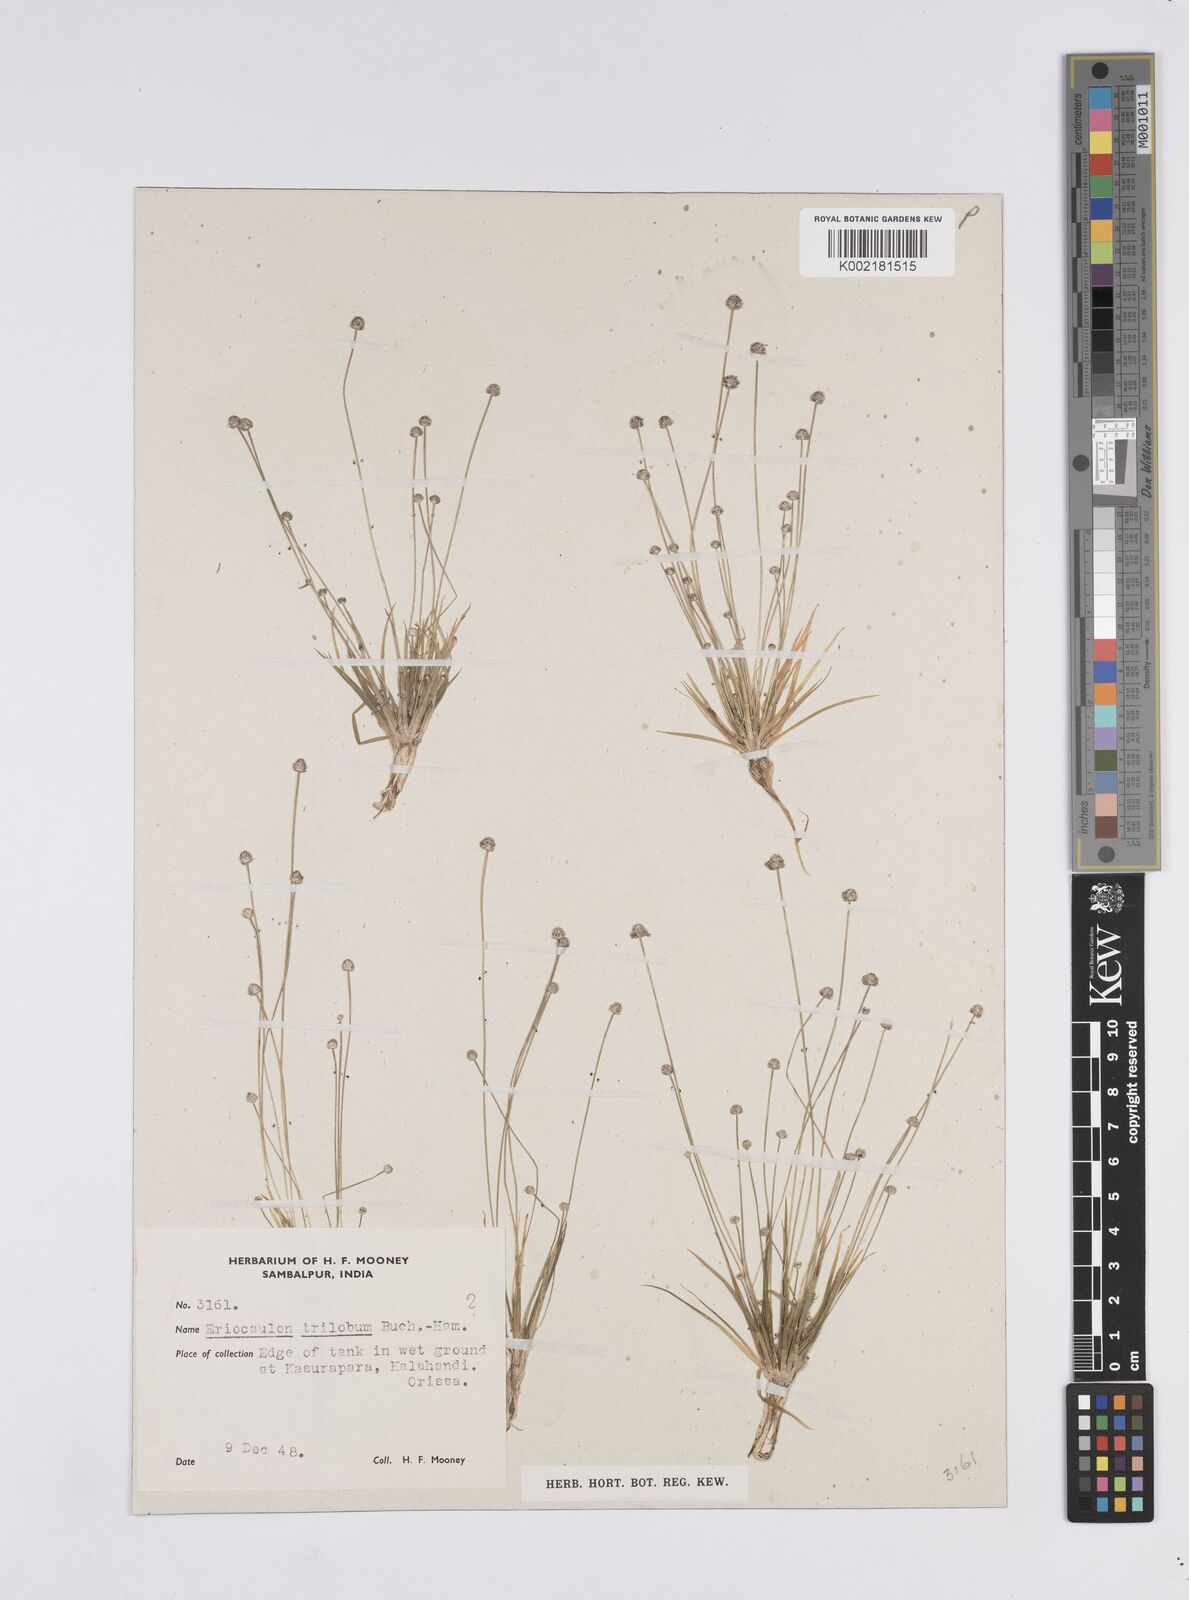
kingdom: Plantae
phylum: Tracheophyta
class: Liliopsida
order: Poales
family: Eriocaulaceae
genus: Eriocaulon
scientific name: Eriocaulon sollyanum
